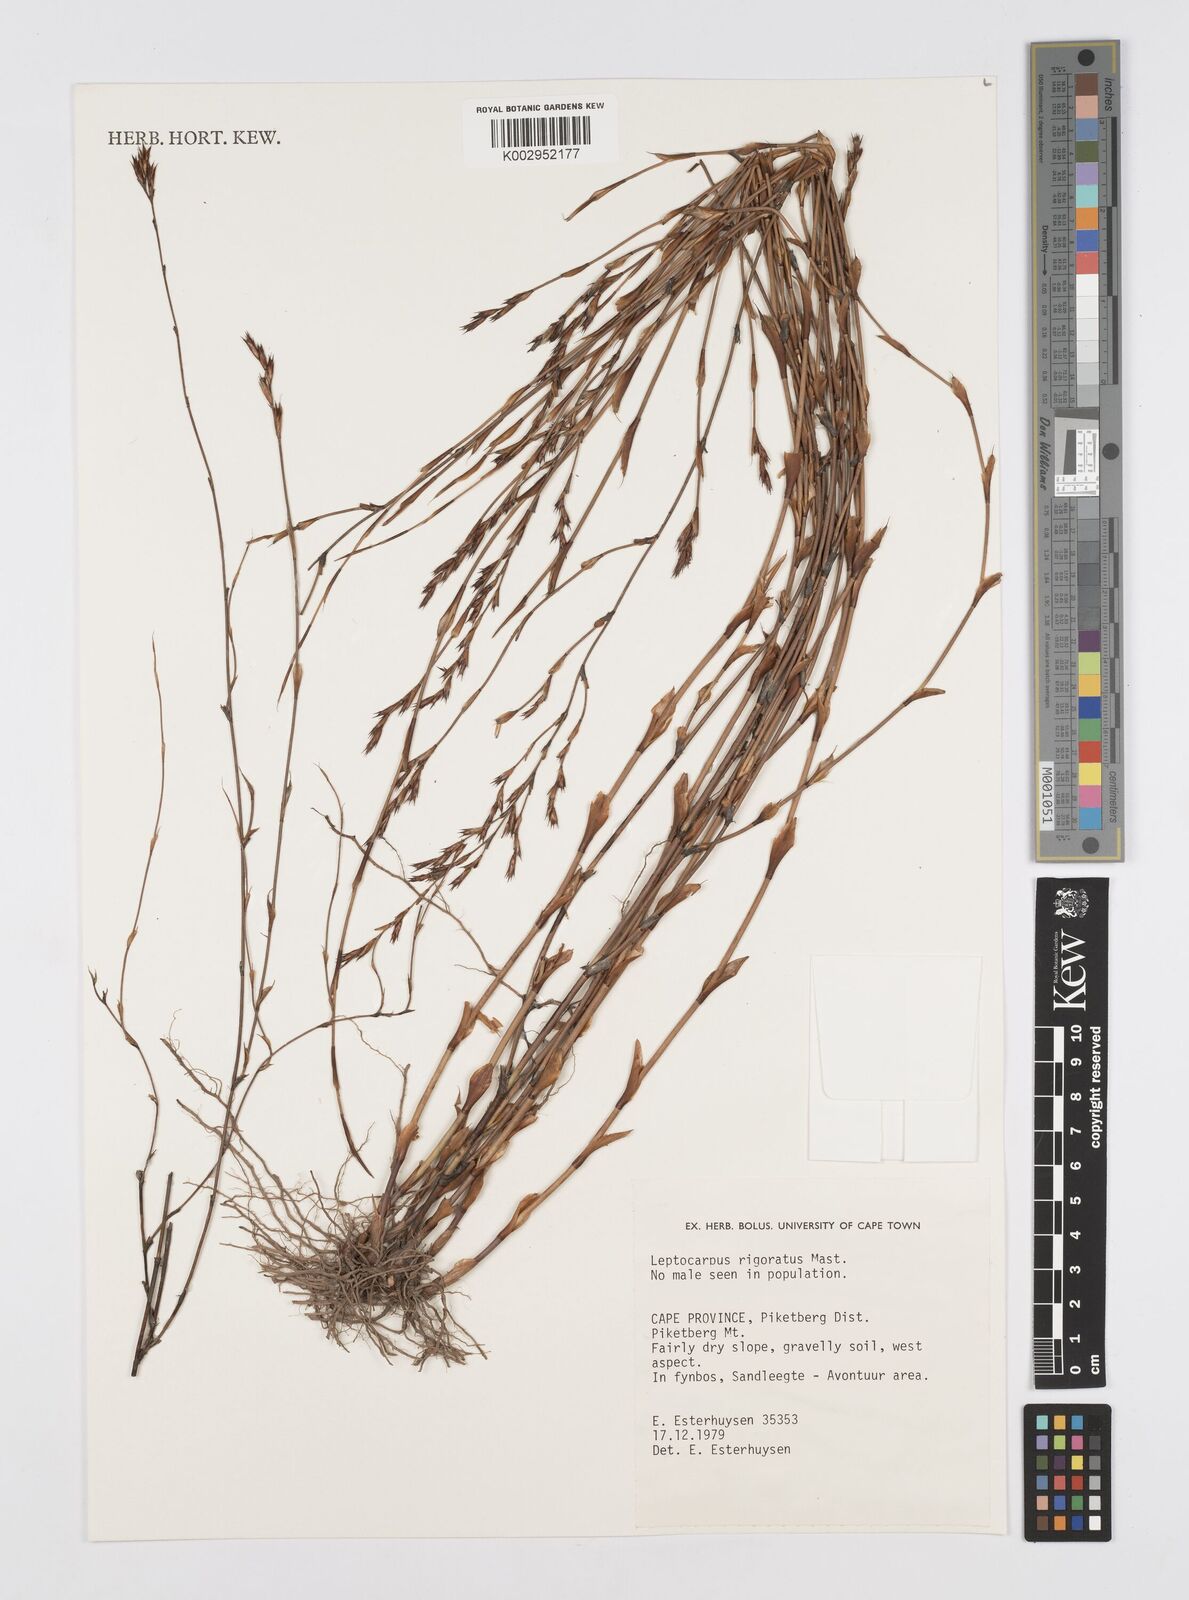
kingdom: Plantae
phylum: Tracheophyta
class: Liliopsida
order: Poales
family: Restionaceae
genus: Restio
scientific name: Restio rigoratus
